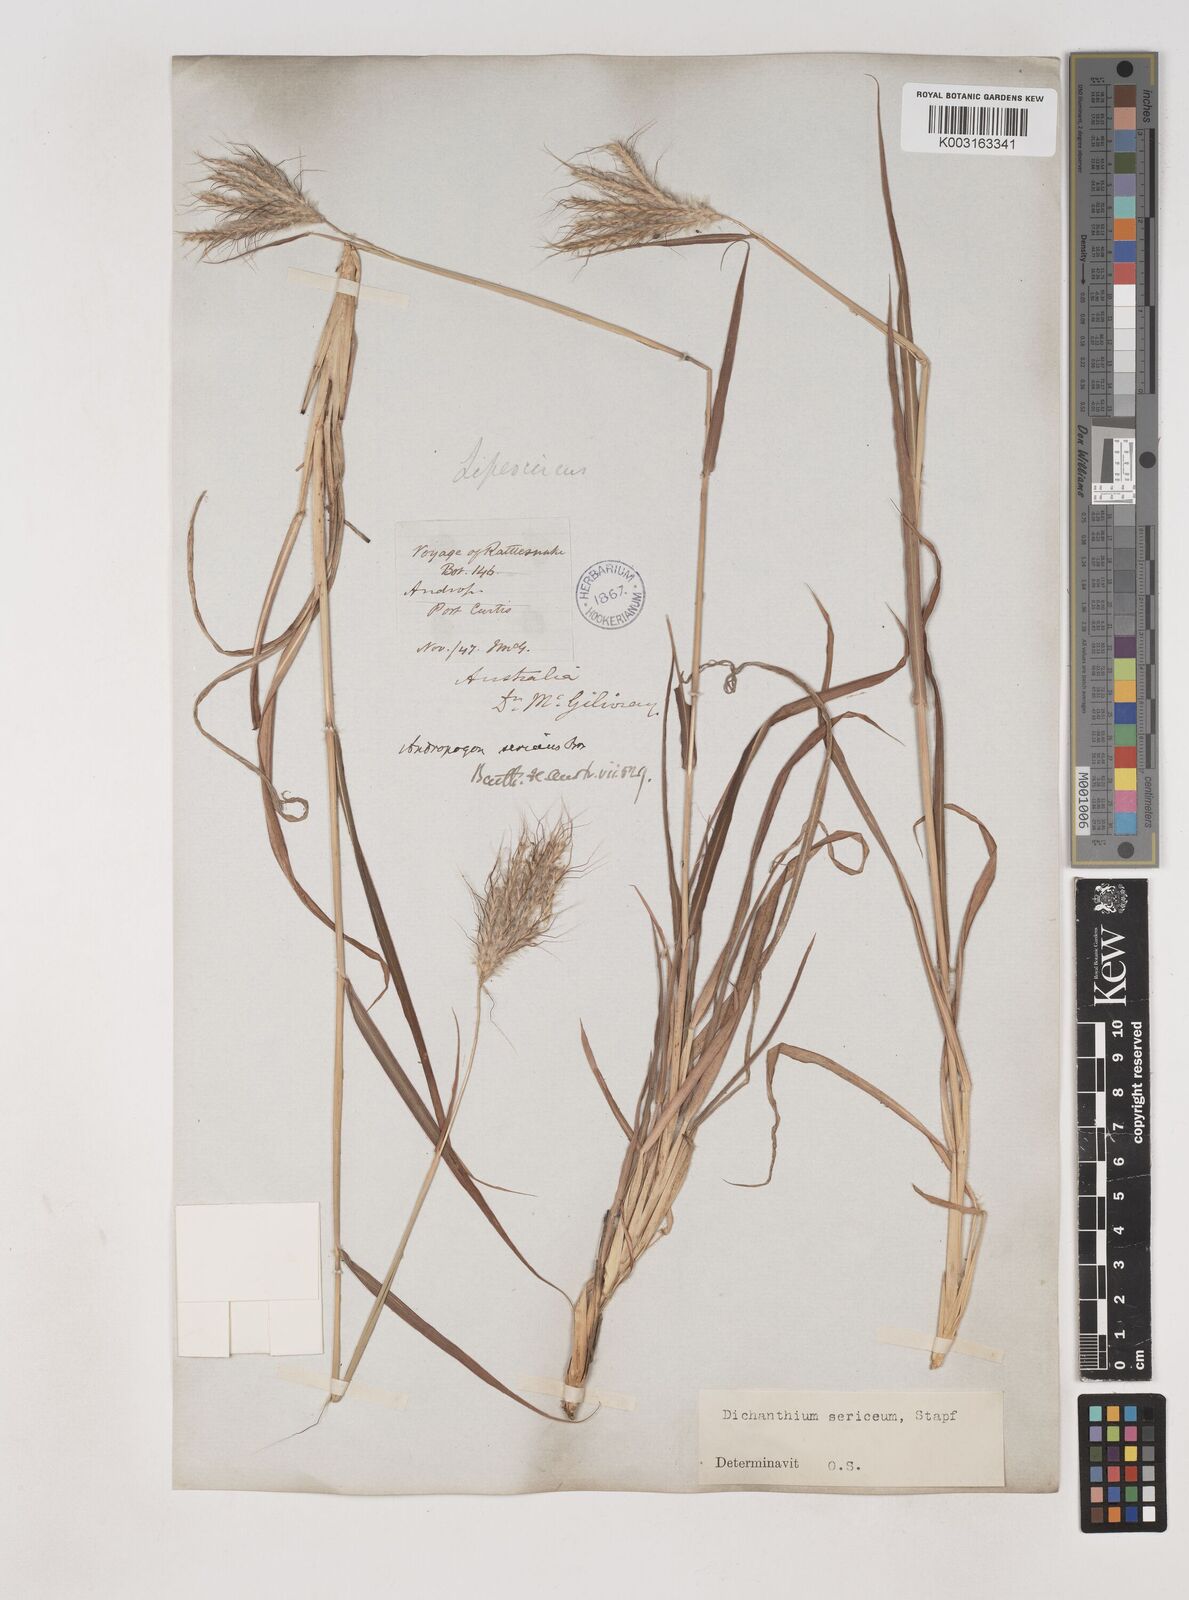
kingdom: Plantae
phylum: Tracheophyta
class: Liliopsida
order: Poales
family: Poaceae
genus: Dichanthium
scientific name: Dichanthium sericeum
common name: Silky bluestem
